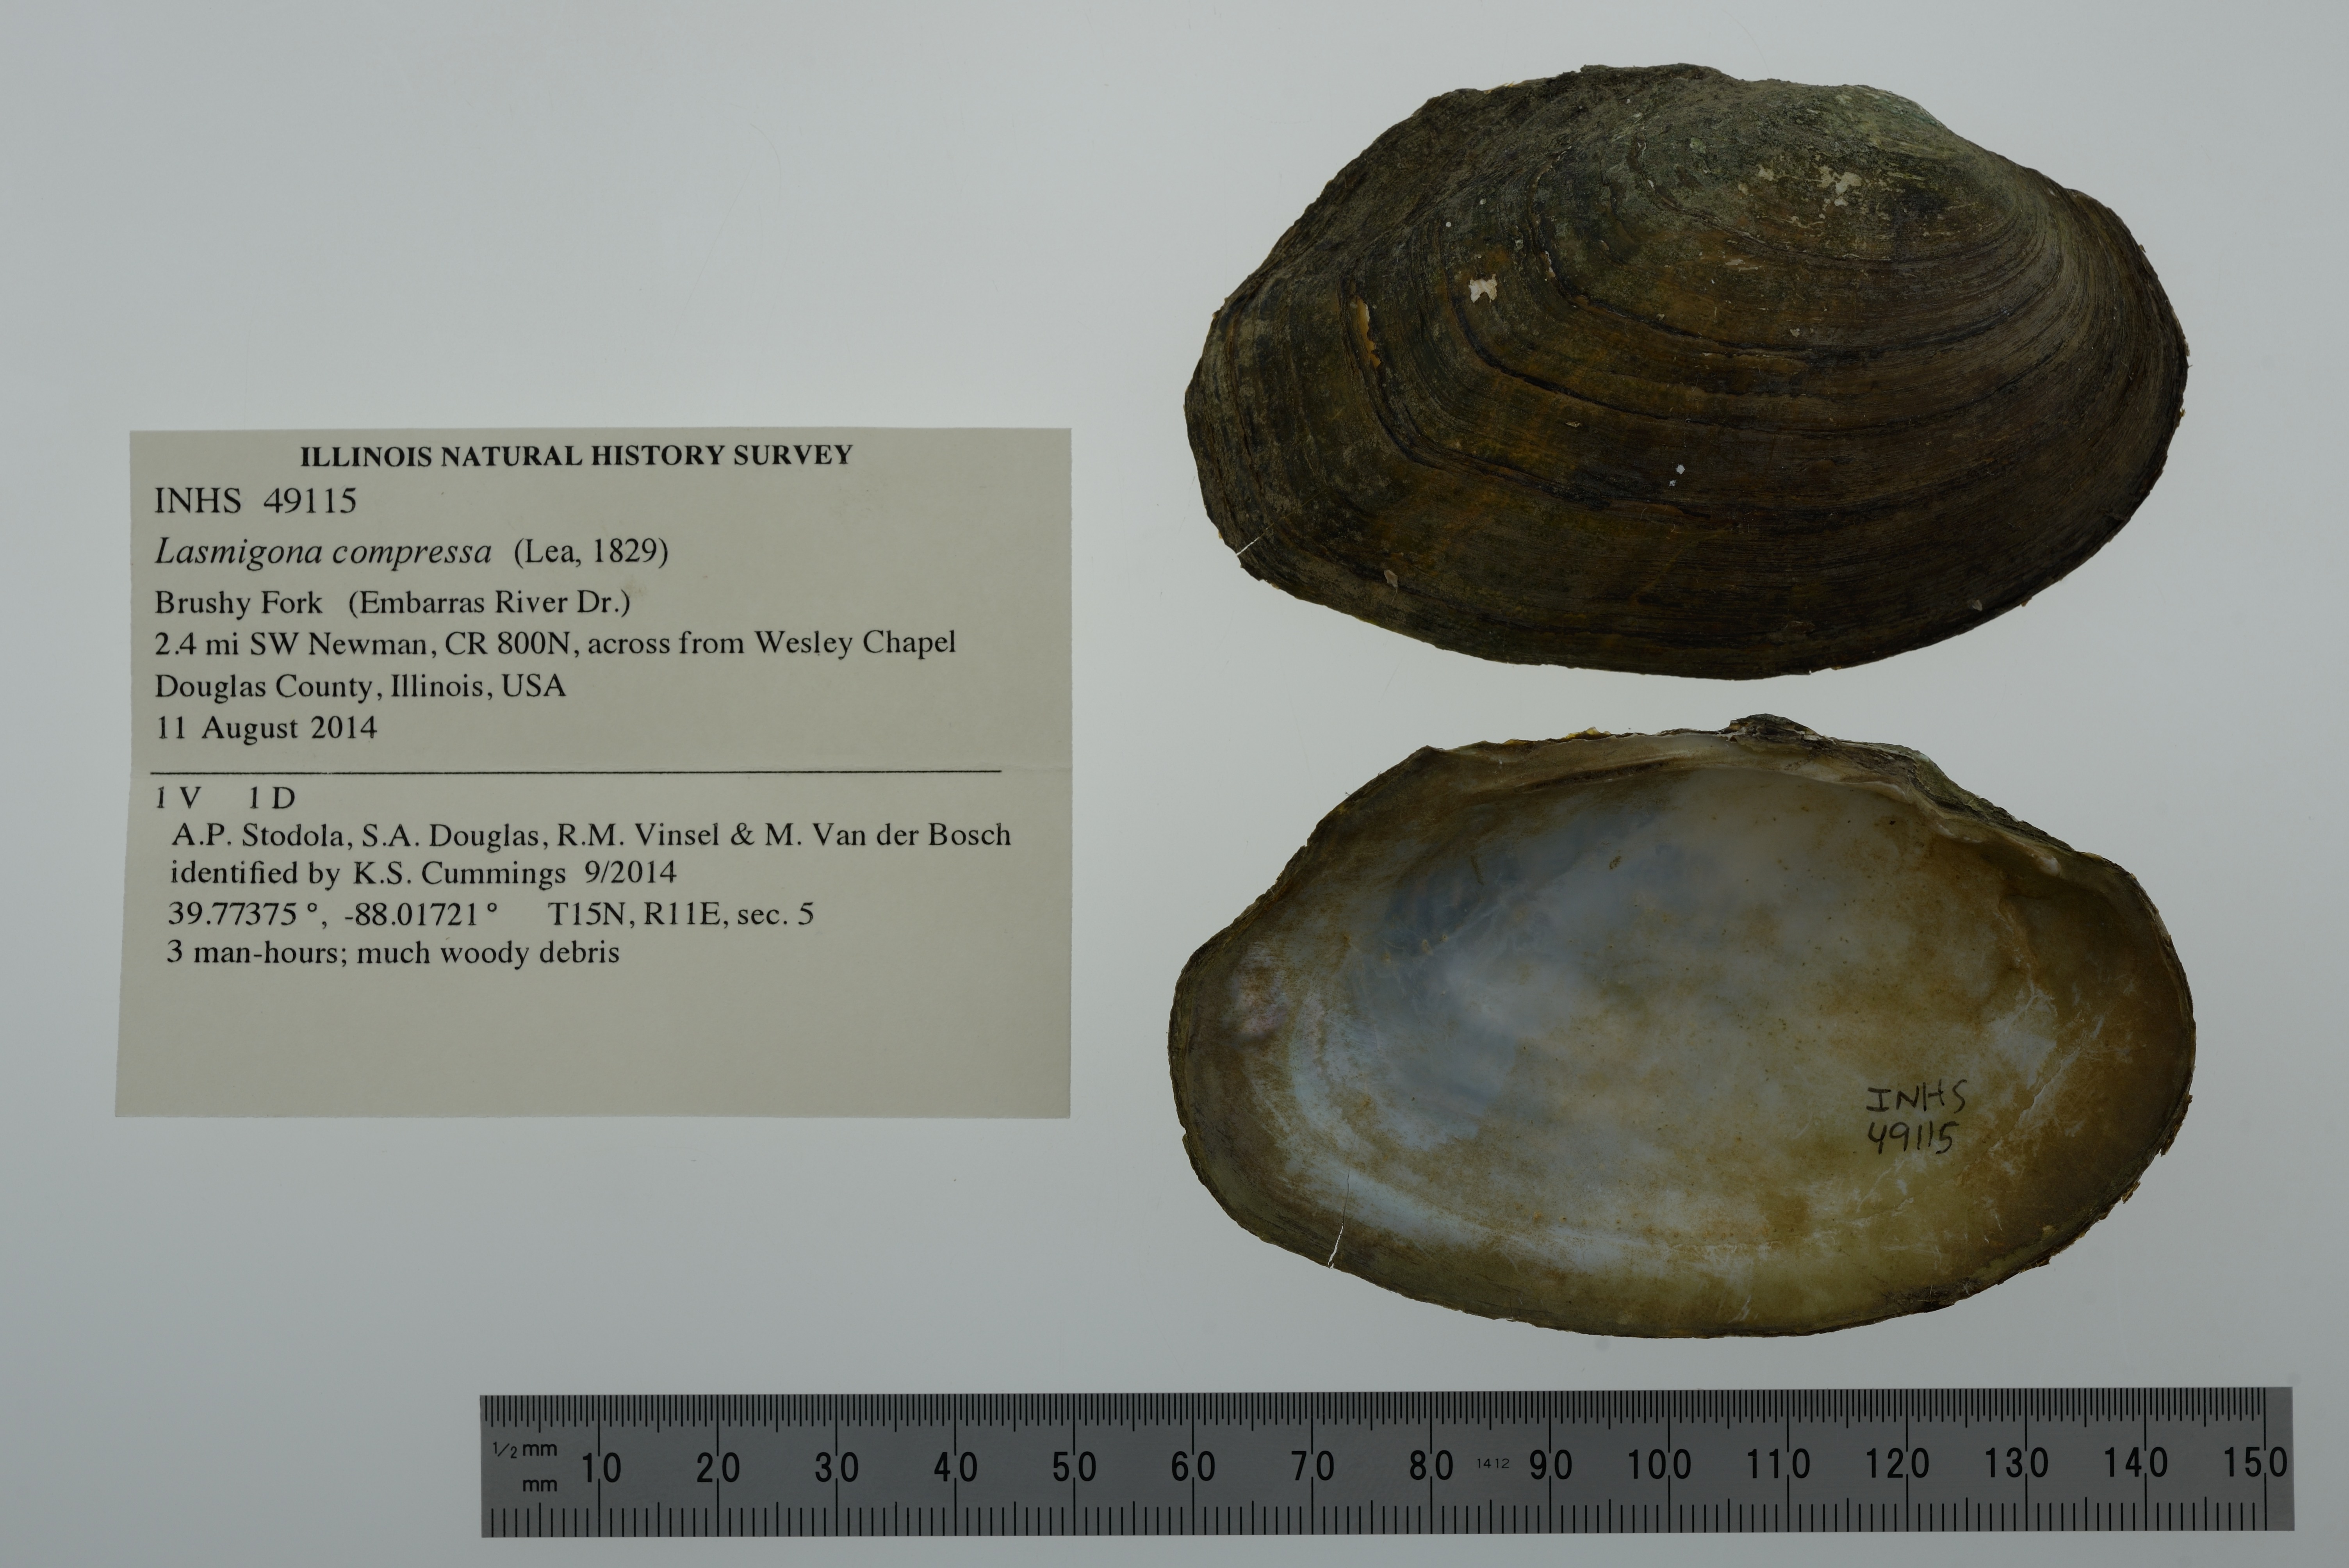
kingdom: Animalia
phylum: Mollusca
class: Bivalvia
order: Unionida
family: Unionidae
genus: Lasmigona
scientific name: Lasmigona compressa
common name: Creek heelsplitter
